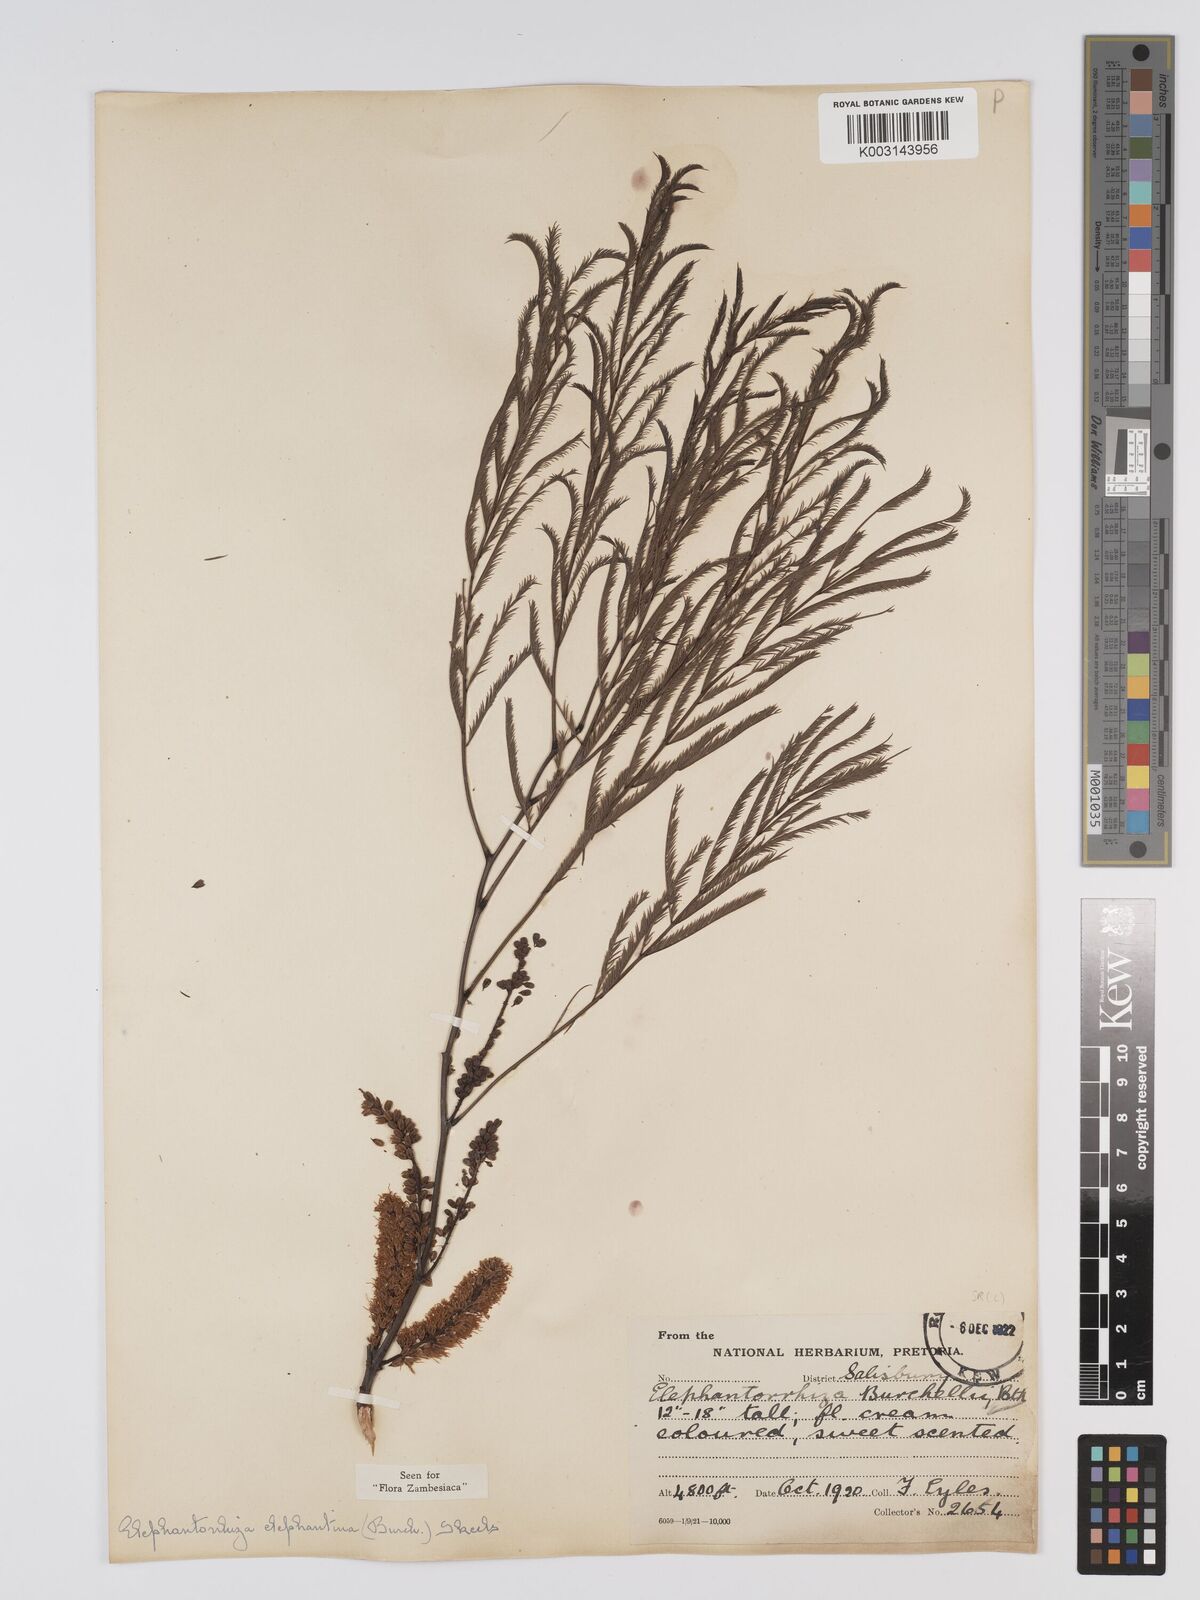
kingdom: Plantae
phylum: Tracheophyta
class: Magnoliopsida
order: Fabales
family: Fabaceae
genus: Elephantorrhiza
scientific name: Elephantorrhiza elephantina
